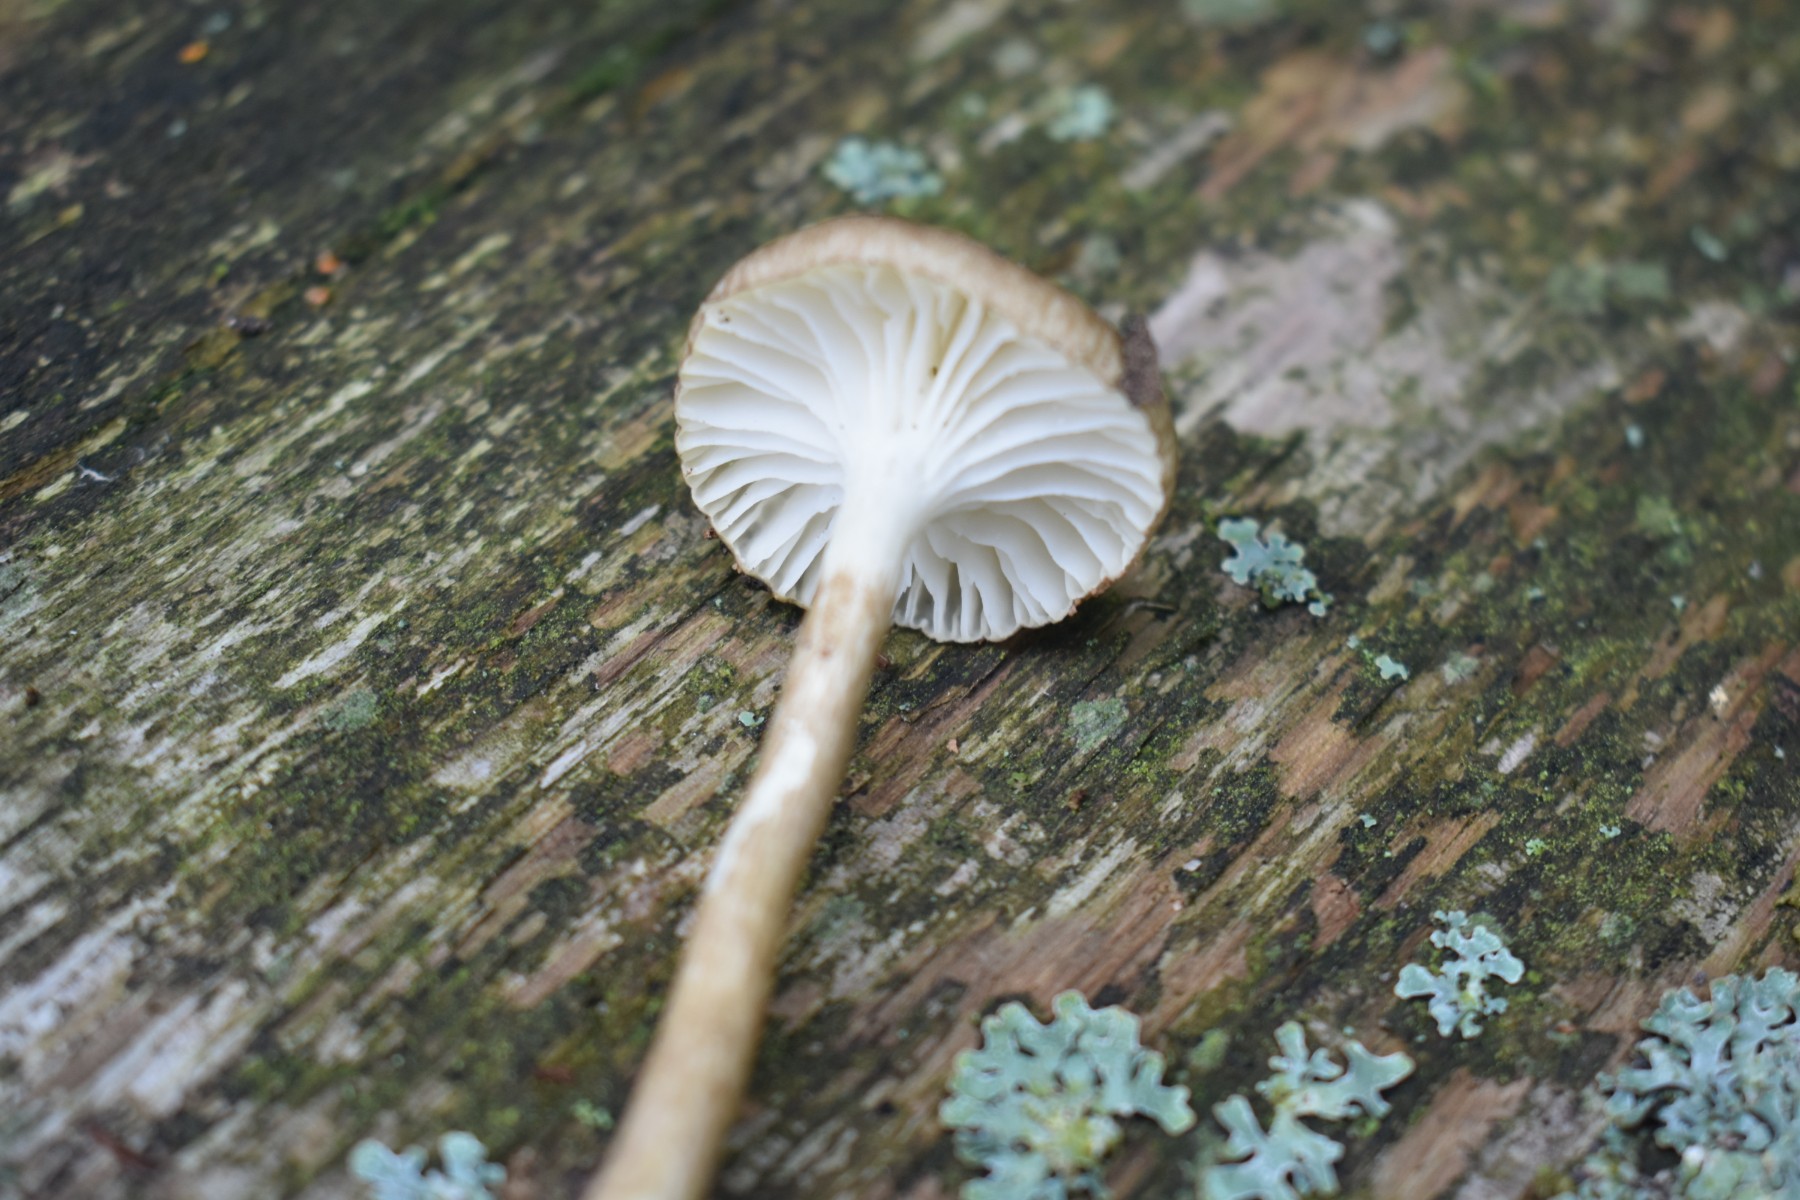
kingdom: Fungi
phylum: Basidiomycota
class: Agaricomycetes
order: Agaricales
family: Hygrophoraceae
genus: Hygrophorus
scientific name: Hygrophorus olivaceoalbus
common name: hvidbrun sneglehat
